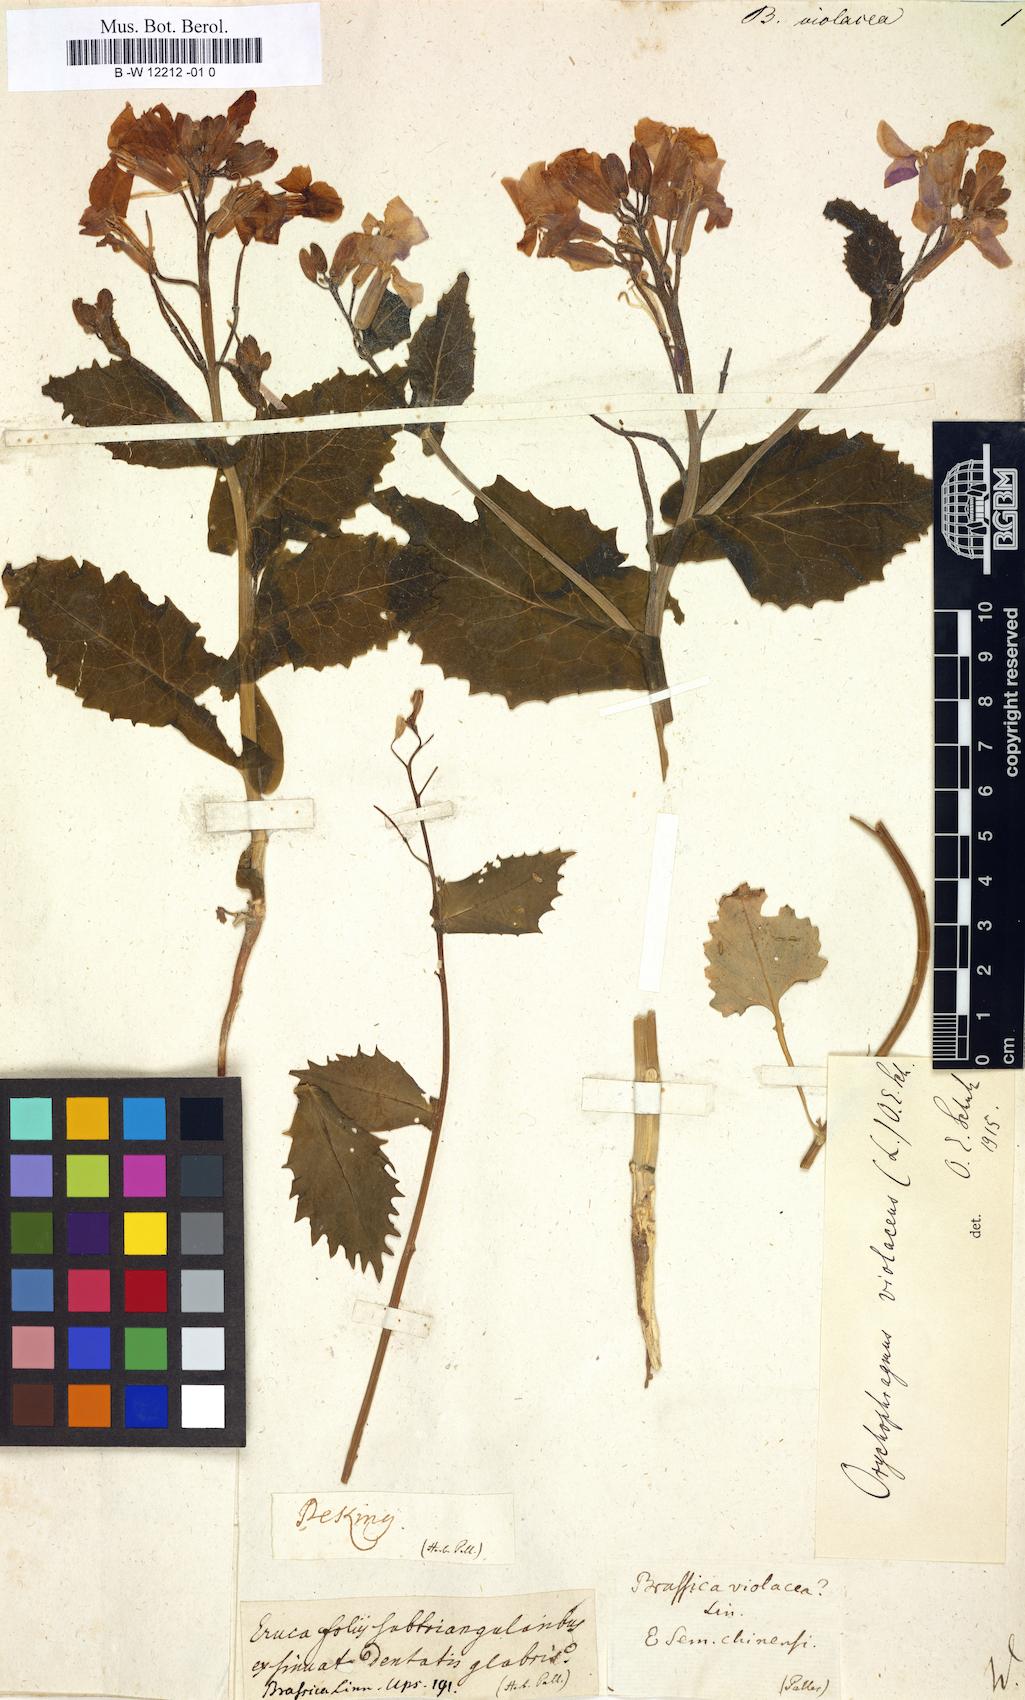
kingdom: Plantae
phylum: Tracheophyta
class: Magnoliopsida
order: Brassicales
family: Brassicaceae
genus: Brassica
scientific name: Brassica violacea
